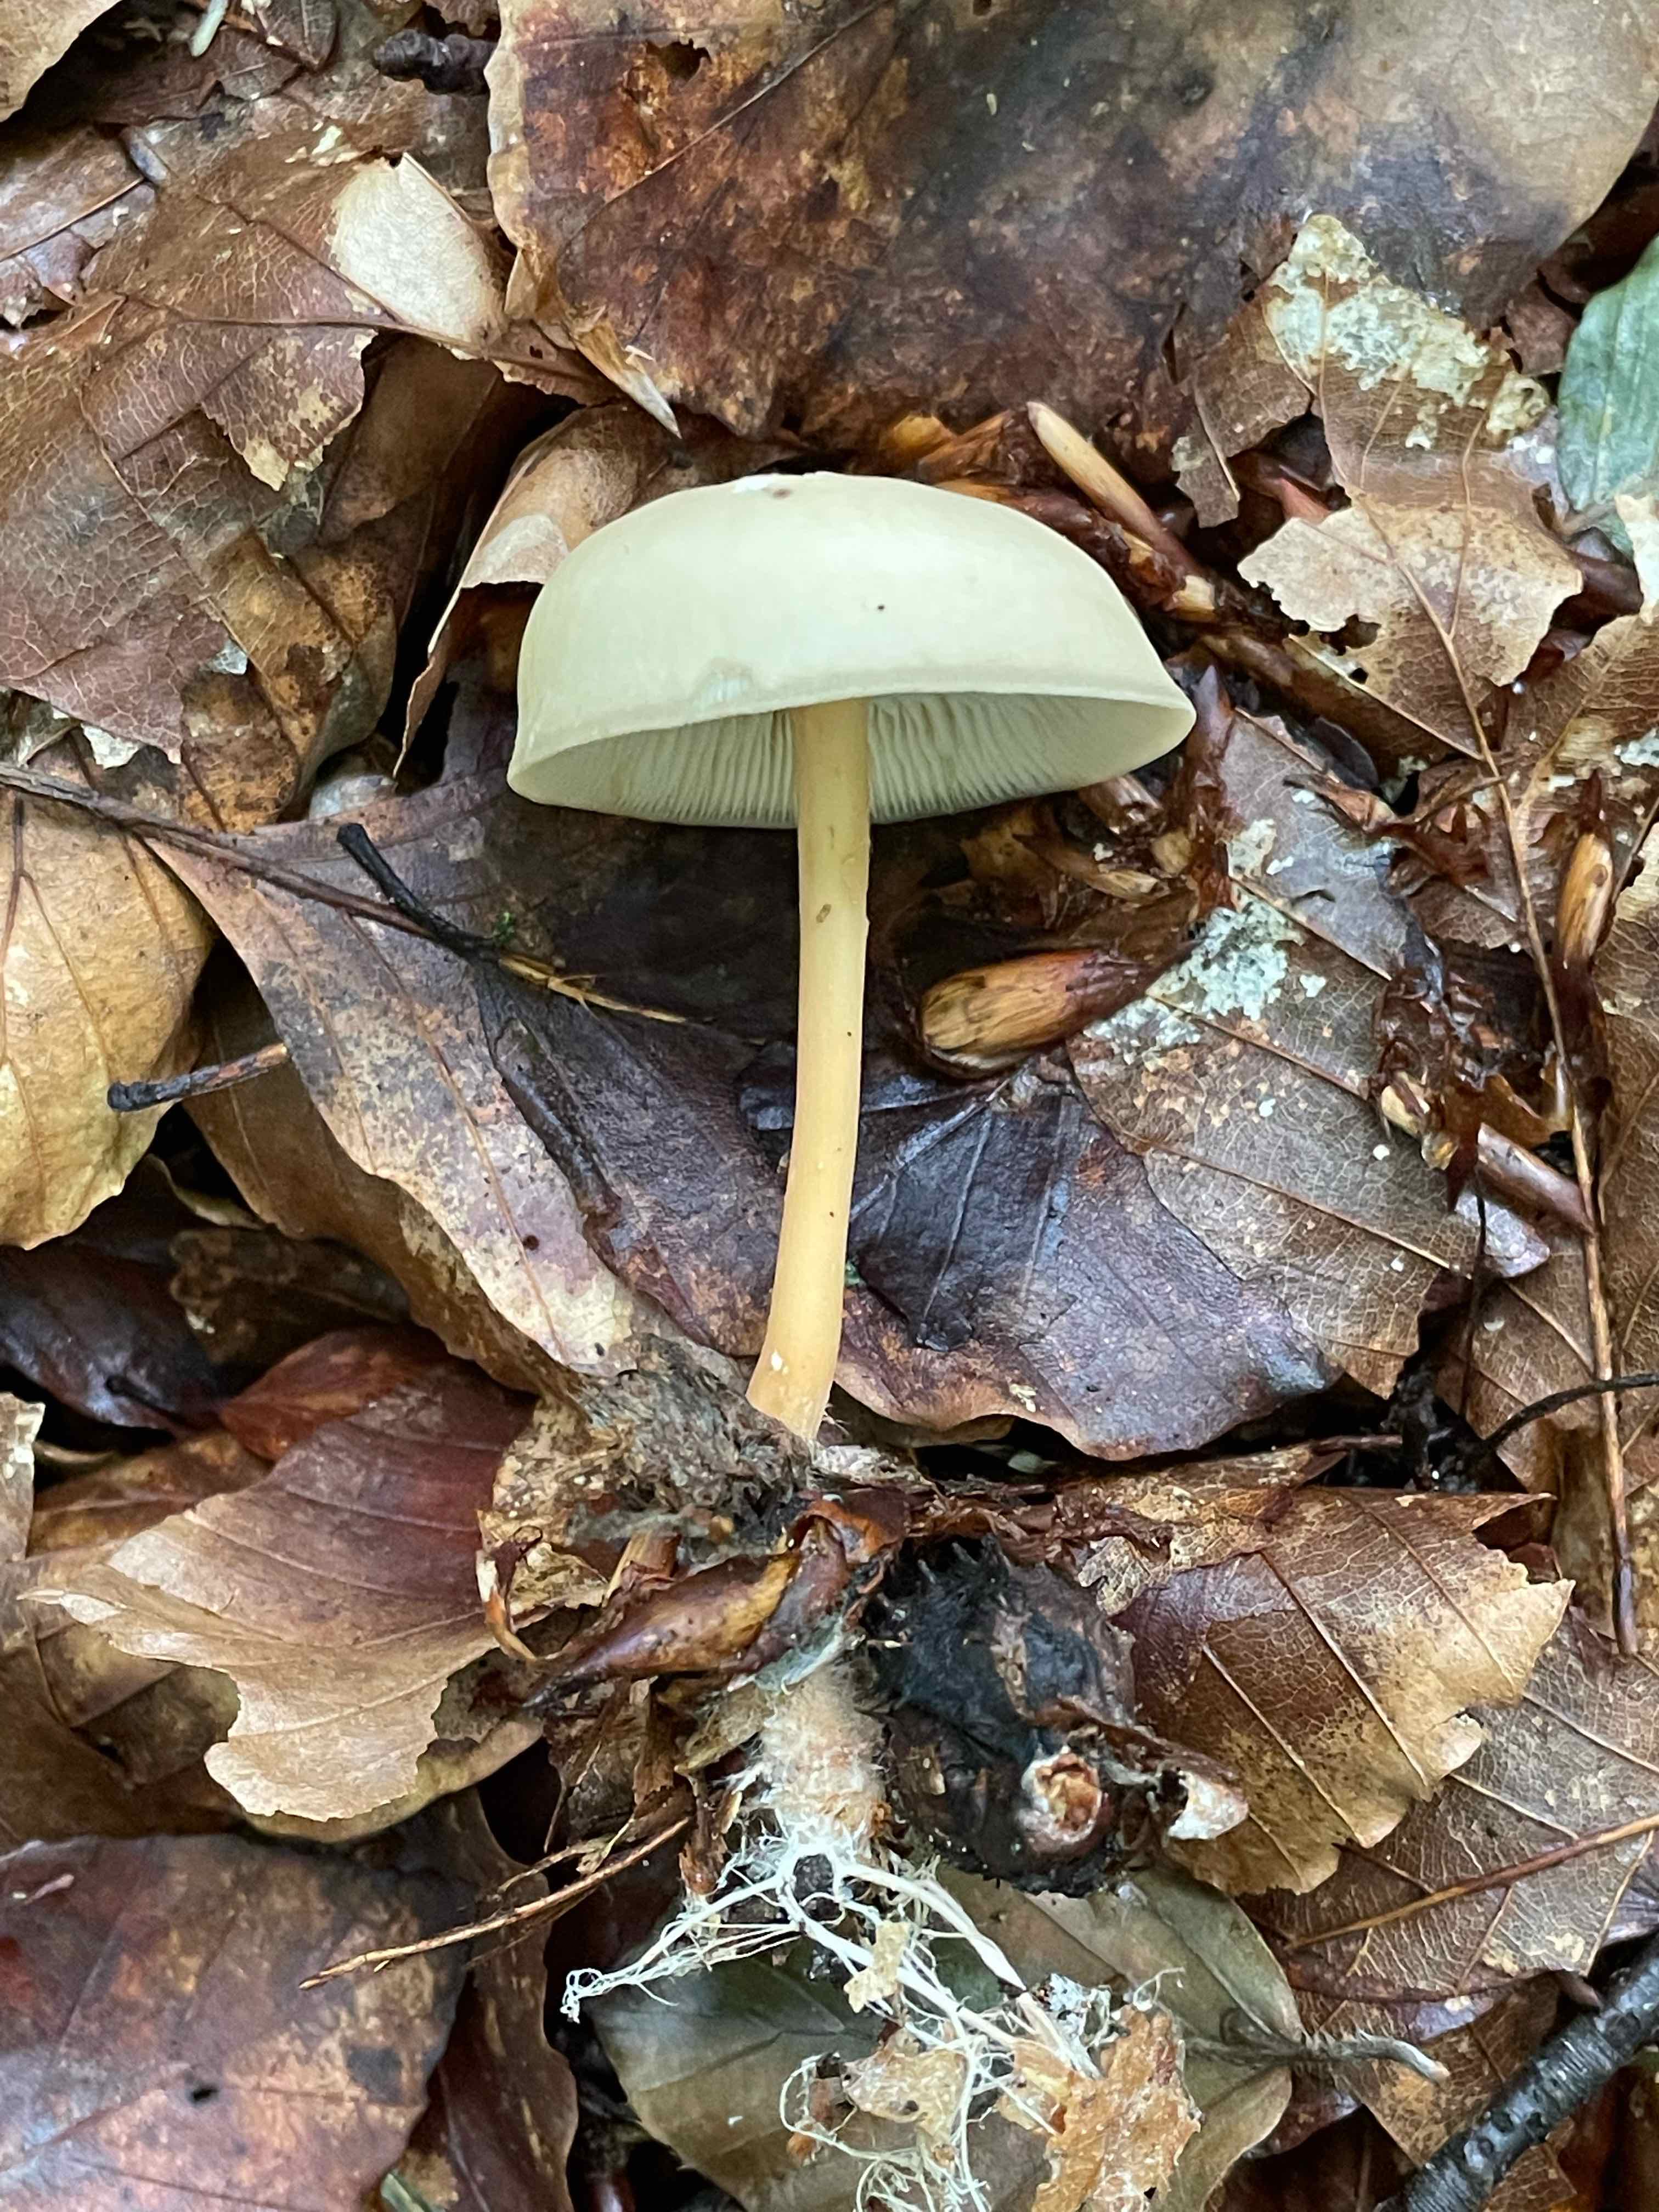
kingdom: Fungi
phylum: Basidiomycota
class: Agaricomycetes
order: Agaricales
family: Omphalotaceae
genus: Gymnopus
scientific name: Gymnopus dryophilus
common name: løv-fladhat
